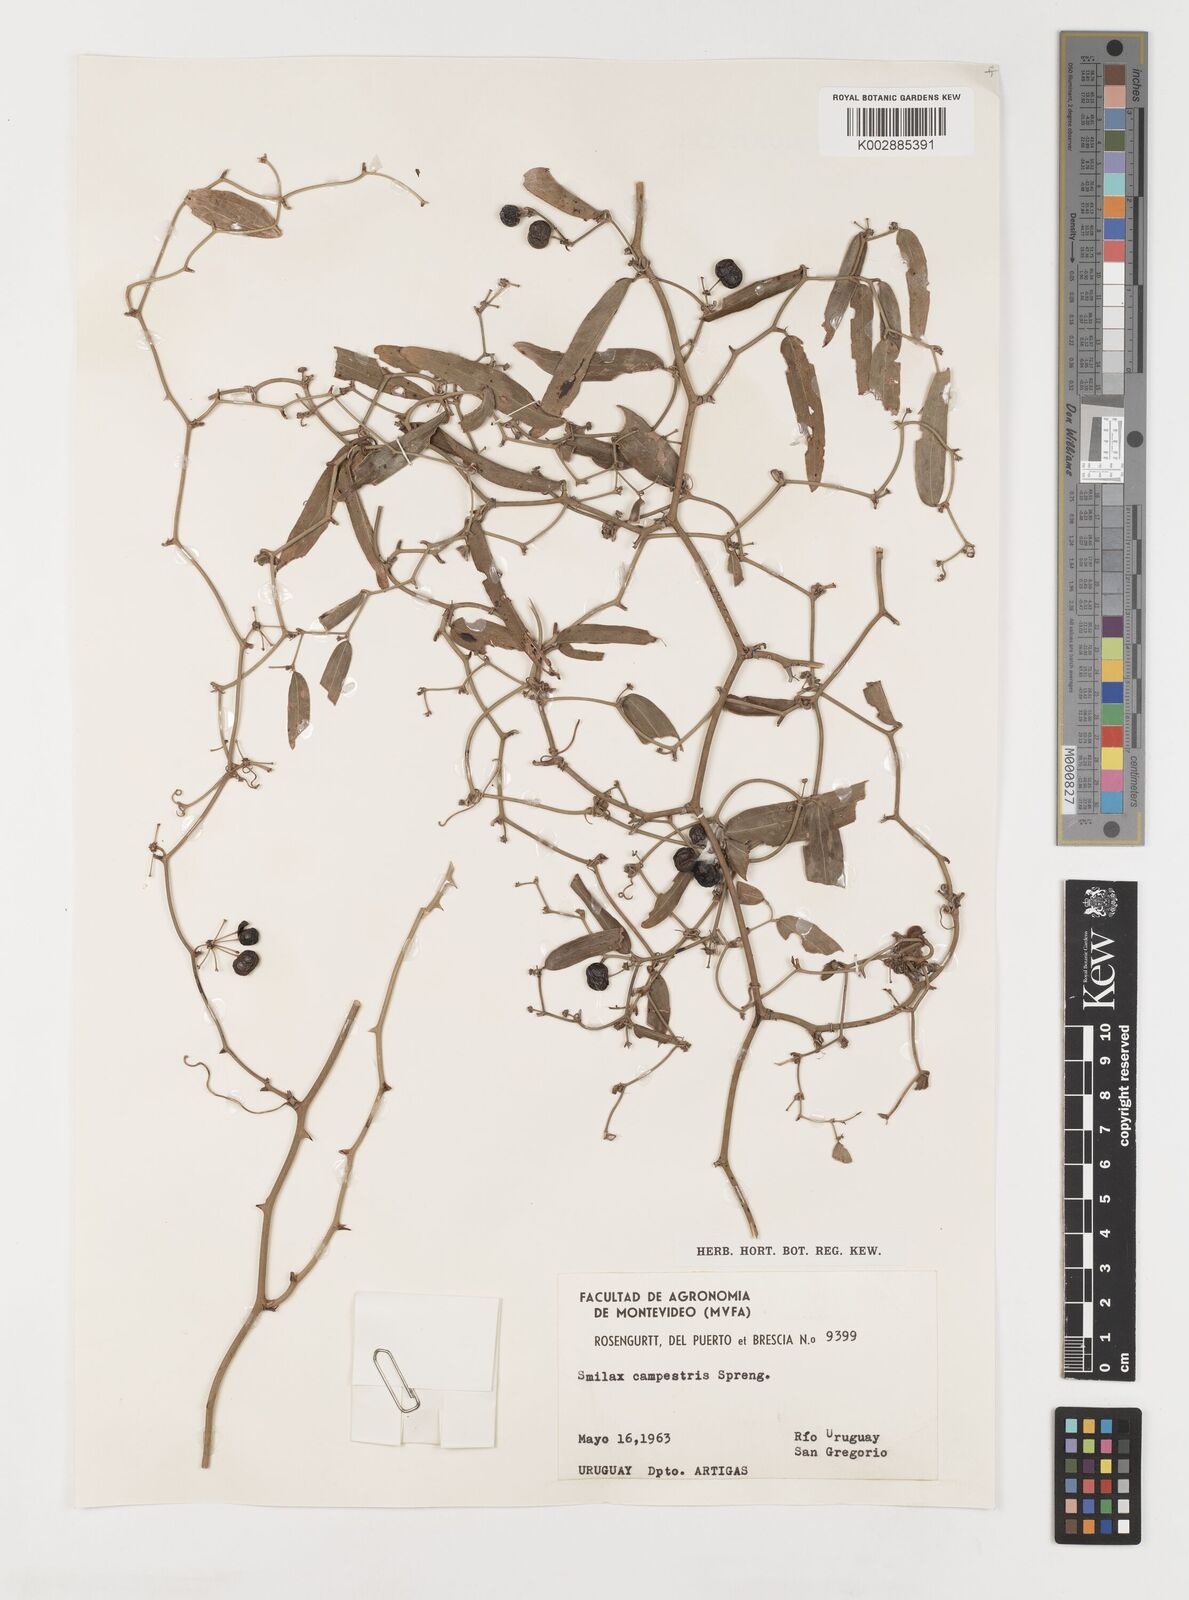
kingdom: Plantae
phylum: Tracheophyta
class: Liliopsida
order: Liliales
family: Smilacaceae
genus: Smilax
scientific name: Smilax campestris
